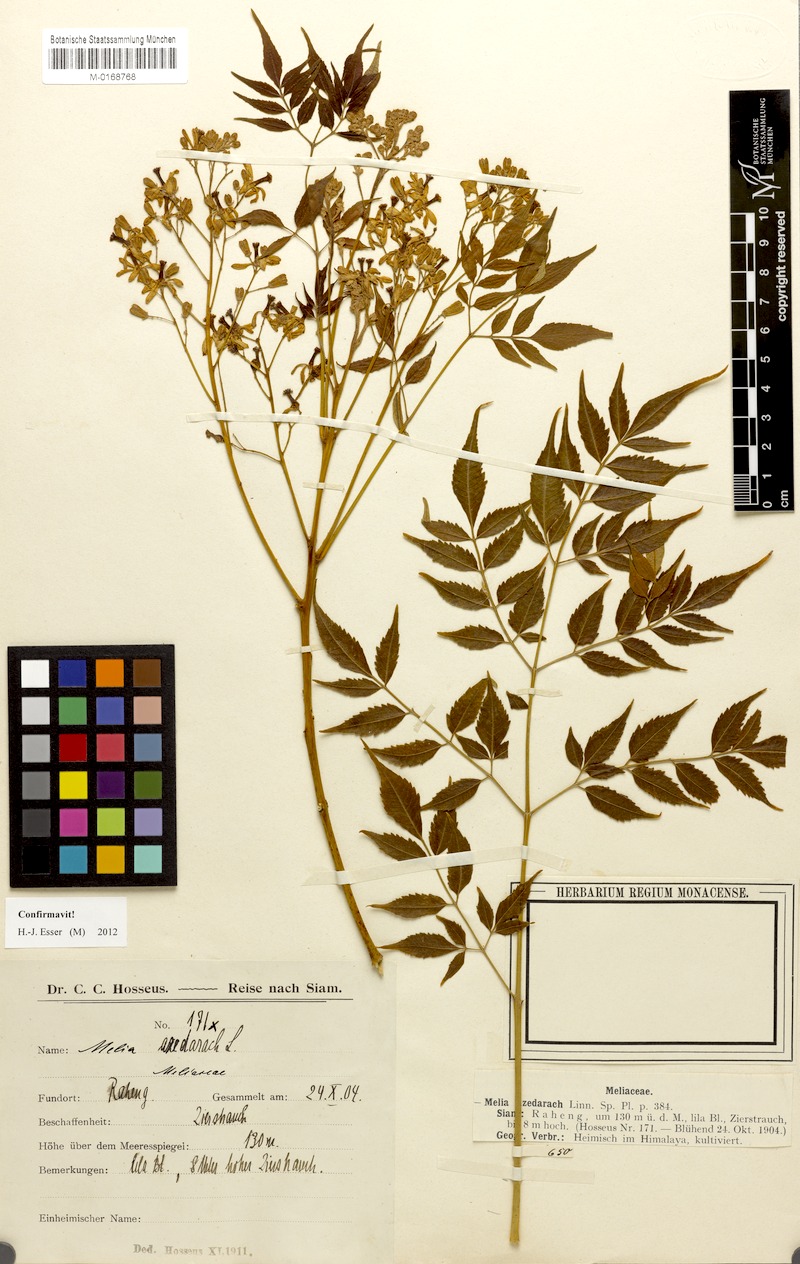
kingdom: Plantae
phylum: Tracheophyta
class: Magnoliopsida
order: Sapindales
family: Meliaceae
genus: Melia
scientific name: Melia azedarach
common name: Chinaberrytree
